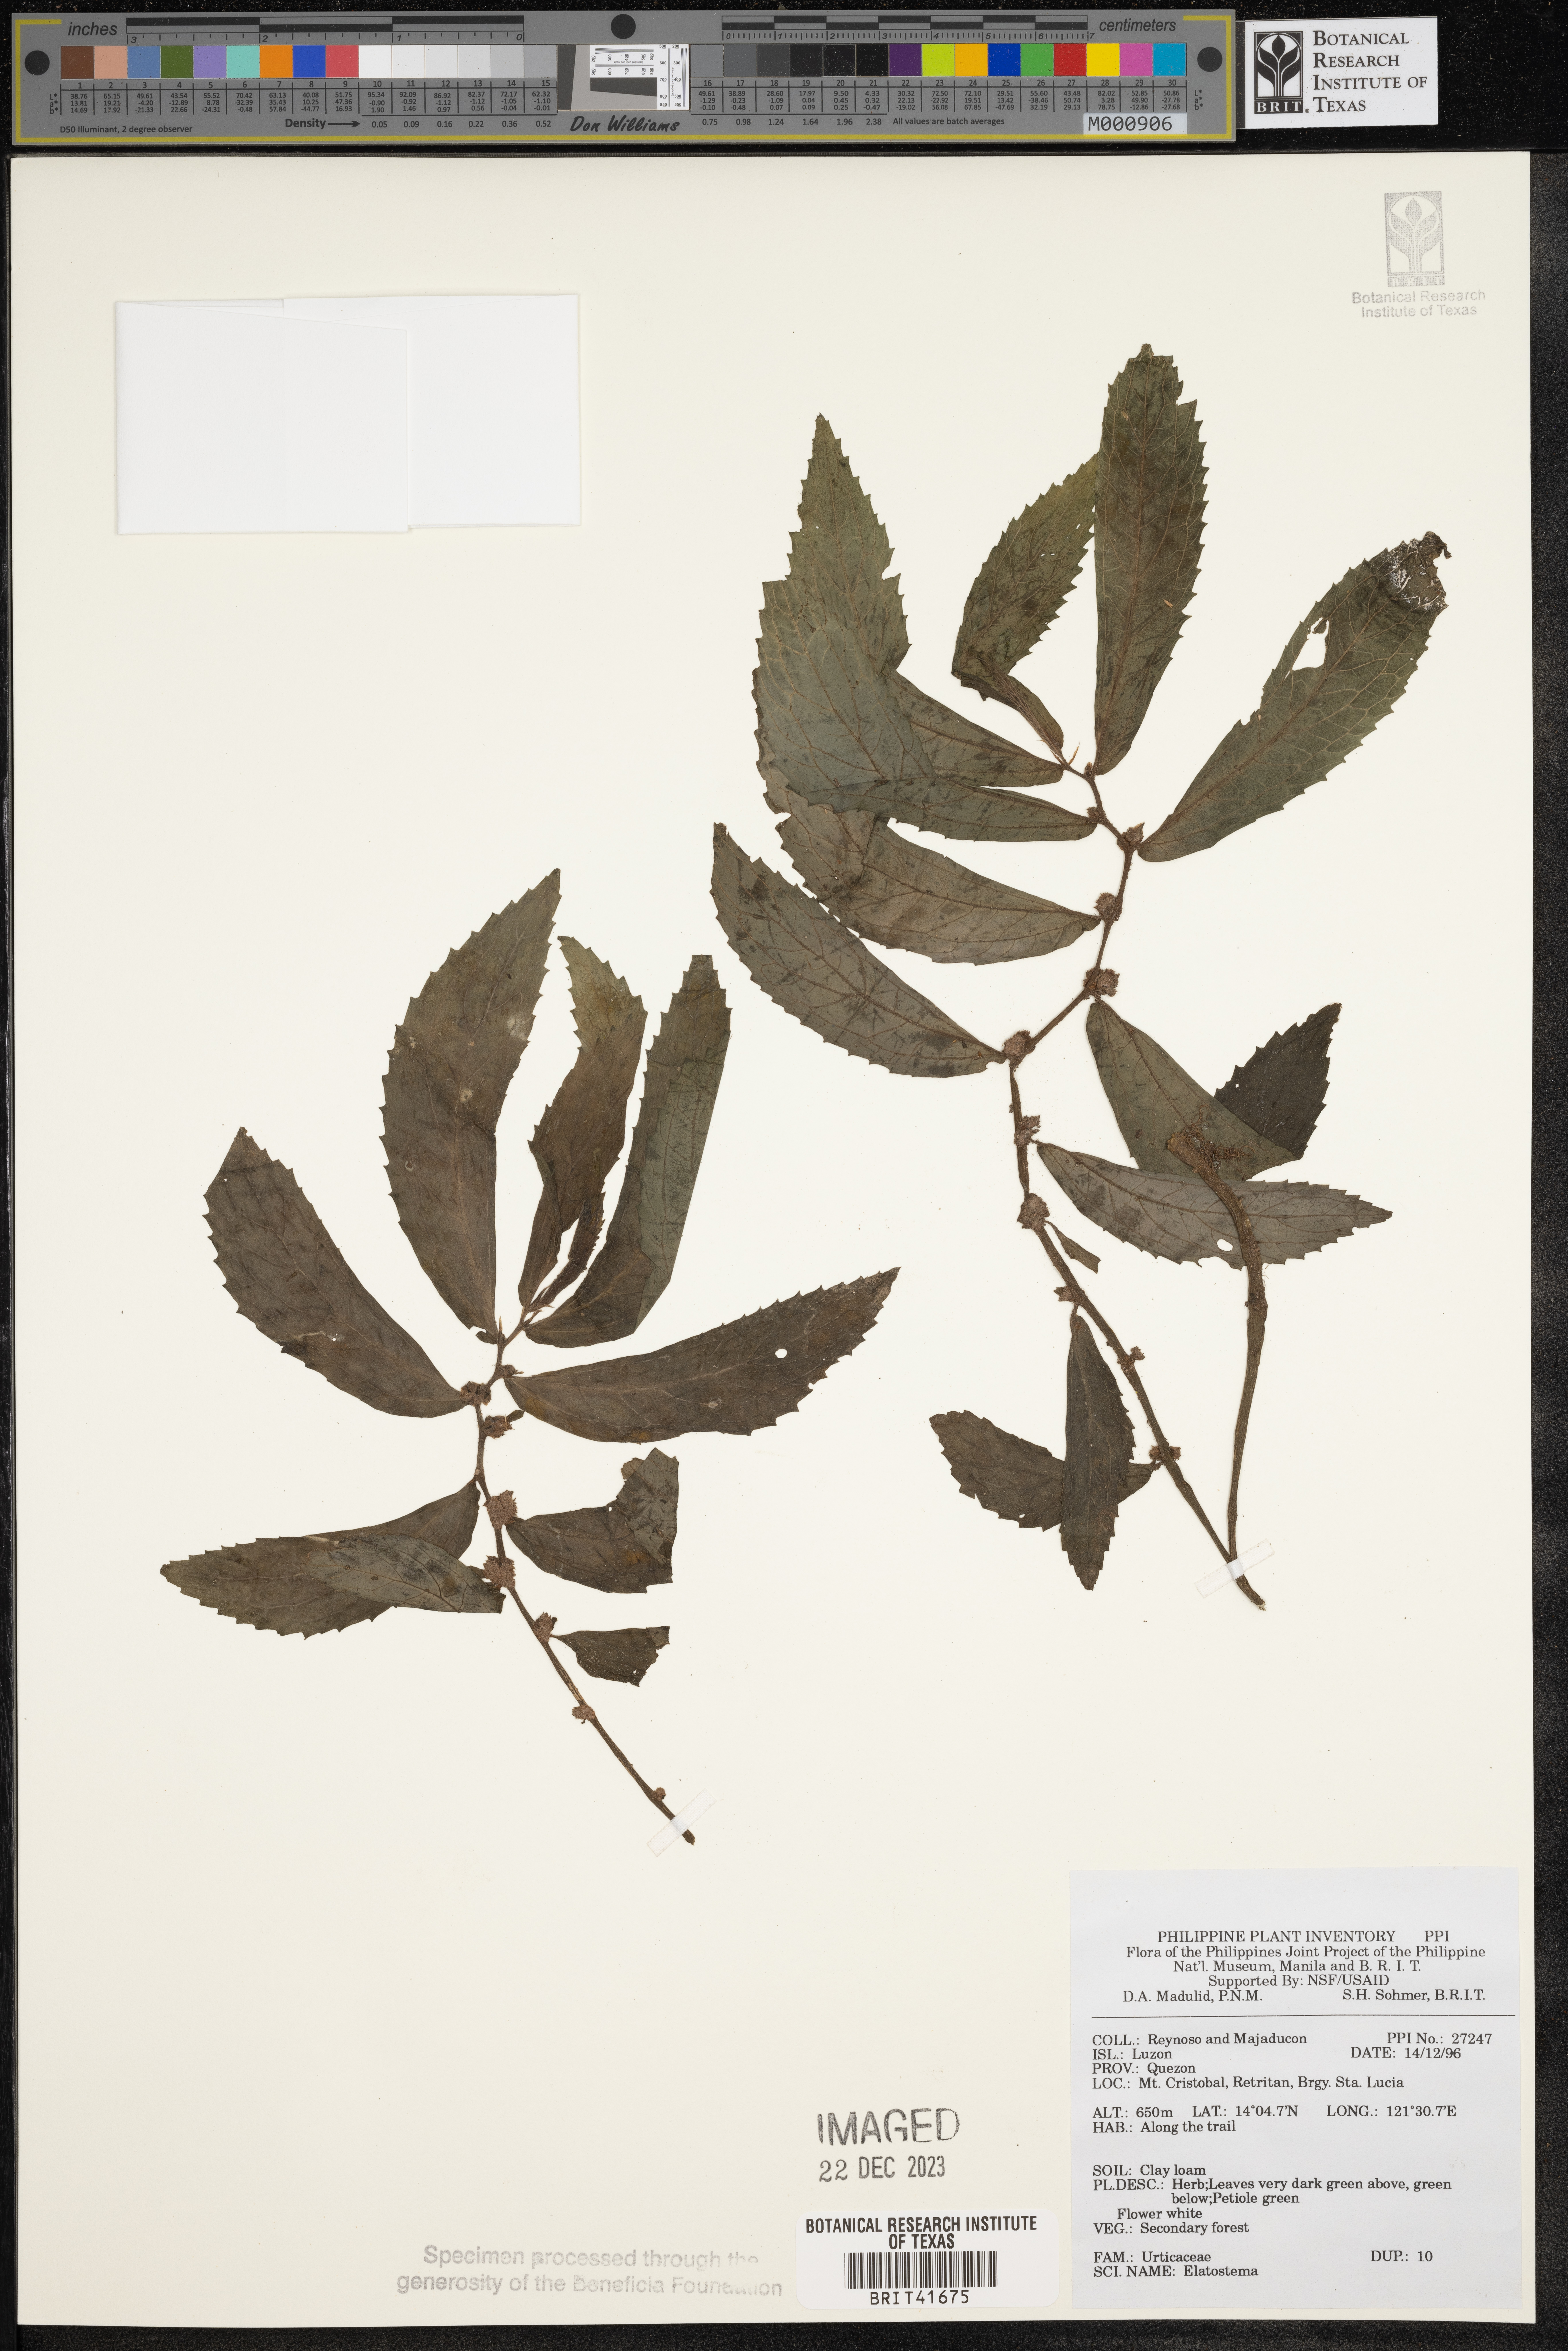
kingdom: Plantae
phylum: Tracheophyta
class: Magnoliopsida
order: Rosales
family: Urticaceae
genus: Elatostema
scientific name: Elatostema
